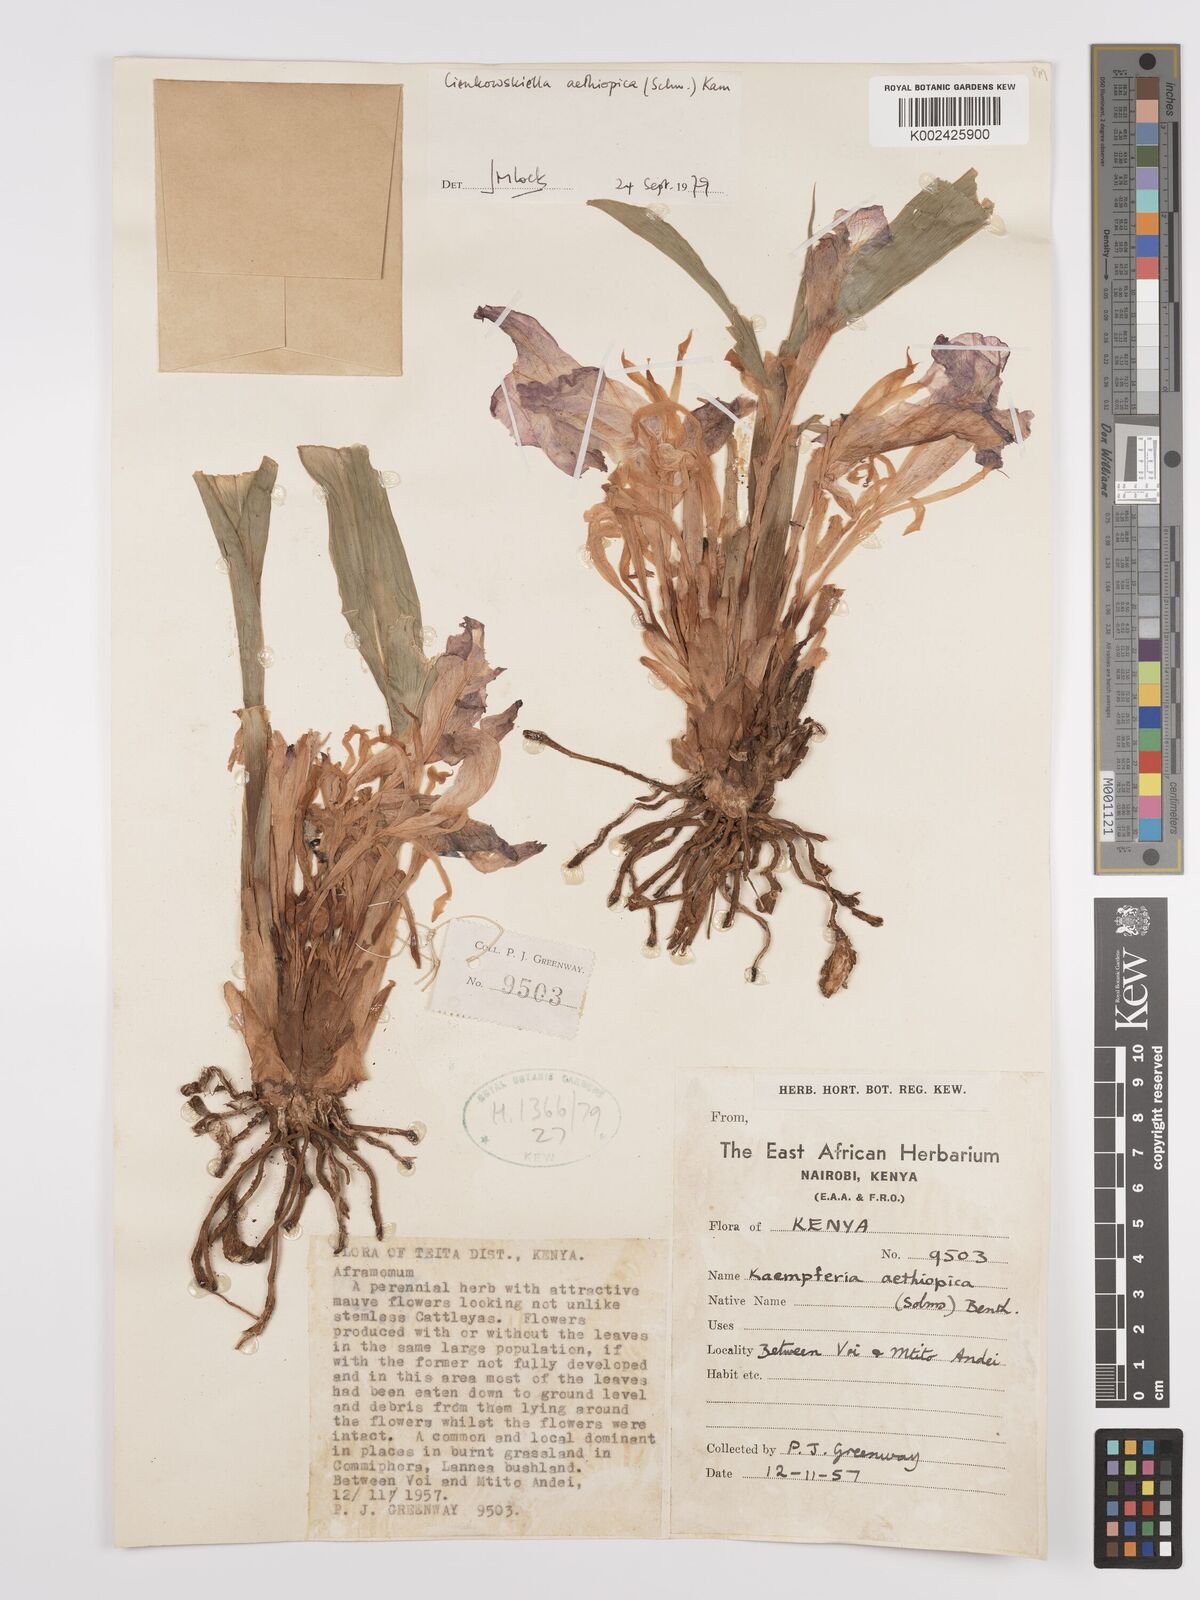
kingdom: Plantae
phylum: Tracheophyta
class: Liliopsida
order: Zingiberales
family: Zingiberaceae
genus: Siphonochilus
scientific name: Siphonochilus aethiopicus
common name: African-ginger
